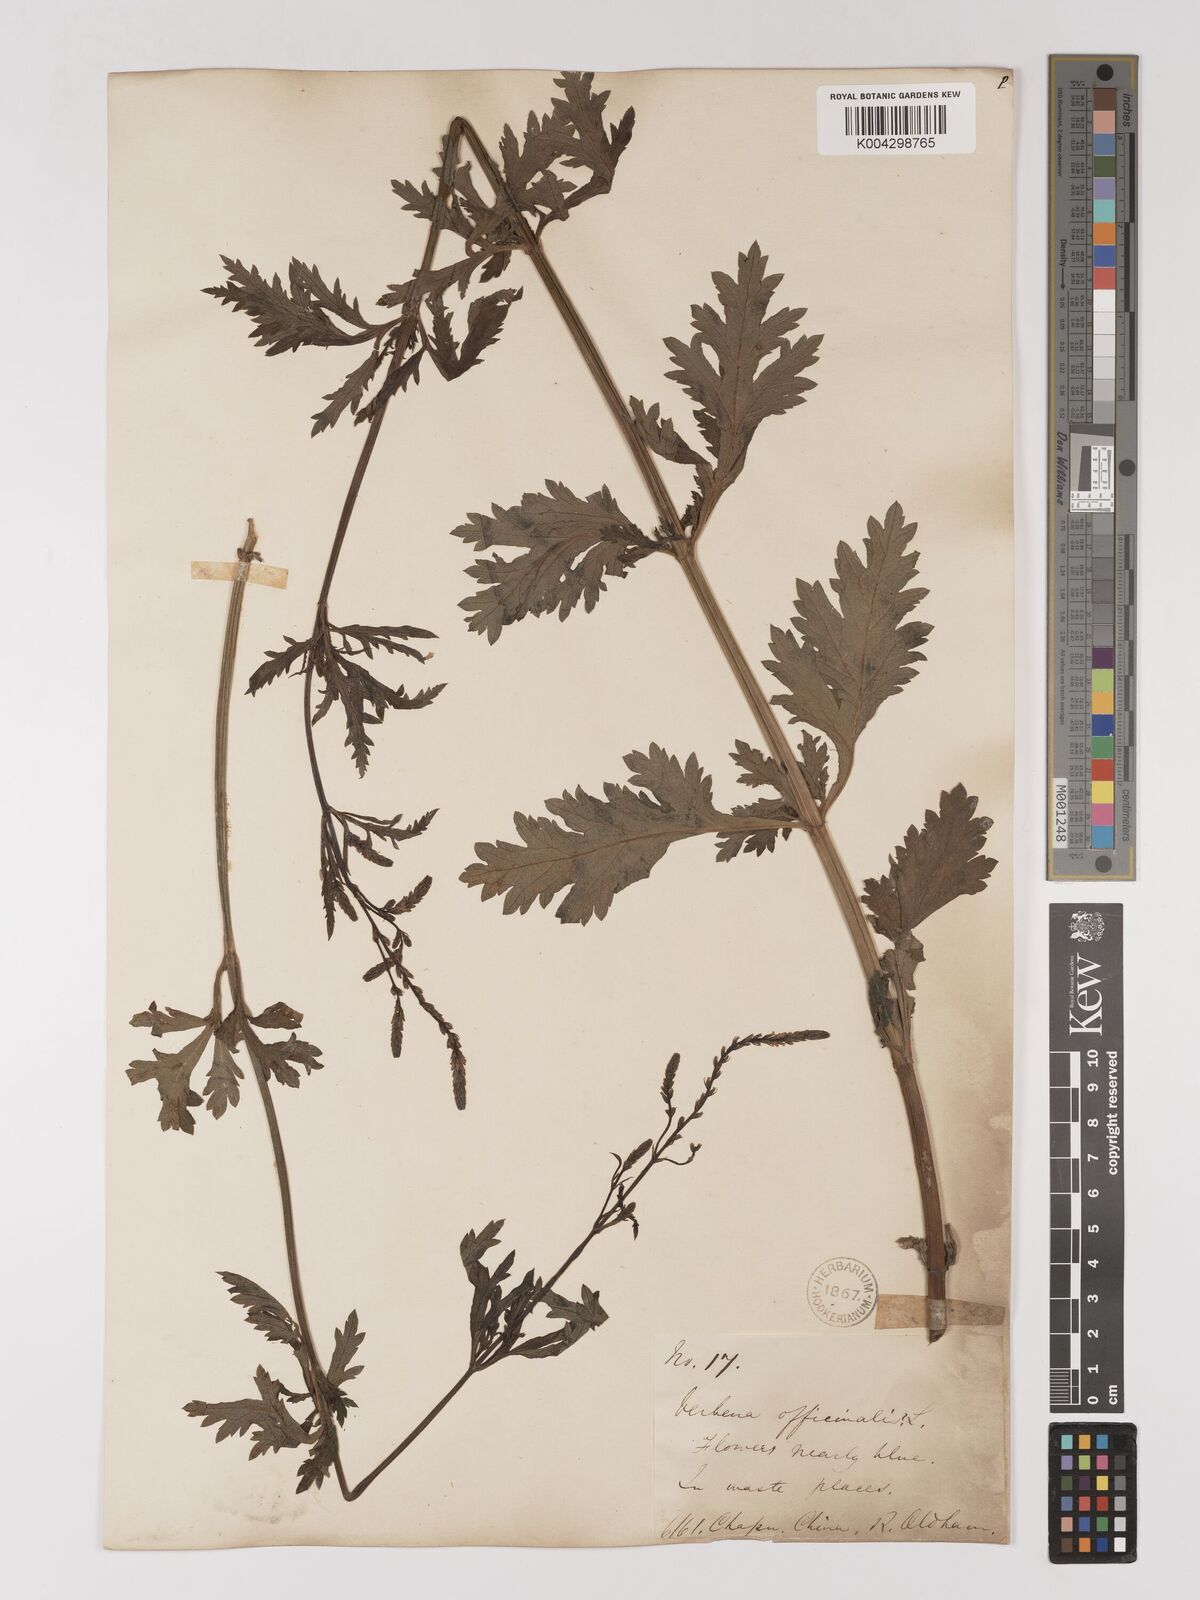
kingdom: Plantae
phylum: Tracheophyta
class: Magnoliopsida
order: Lamiales
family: Verbenaceae
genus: Verbena
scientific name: Verbena officinalis
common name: Vervain
